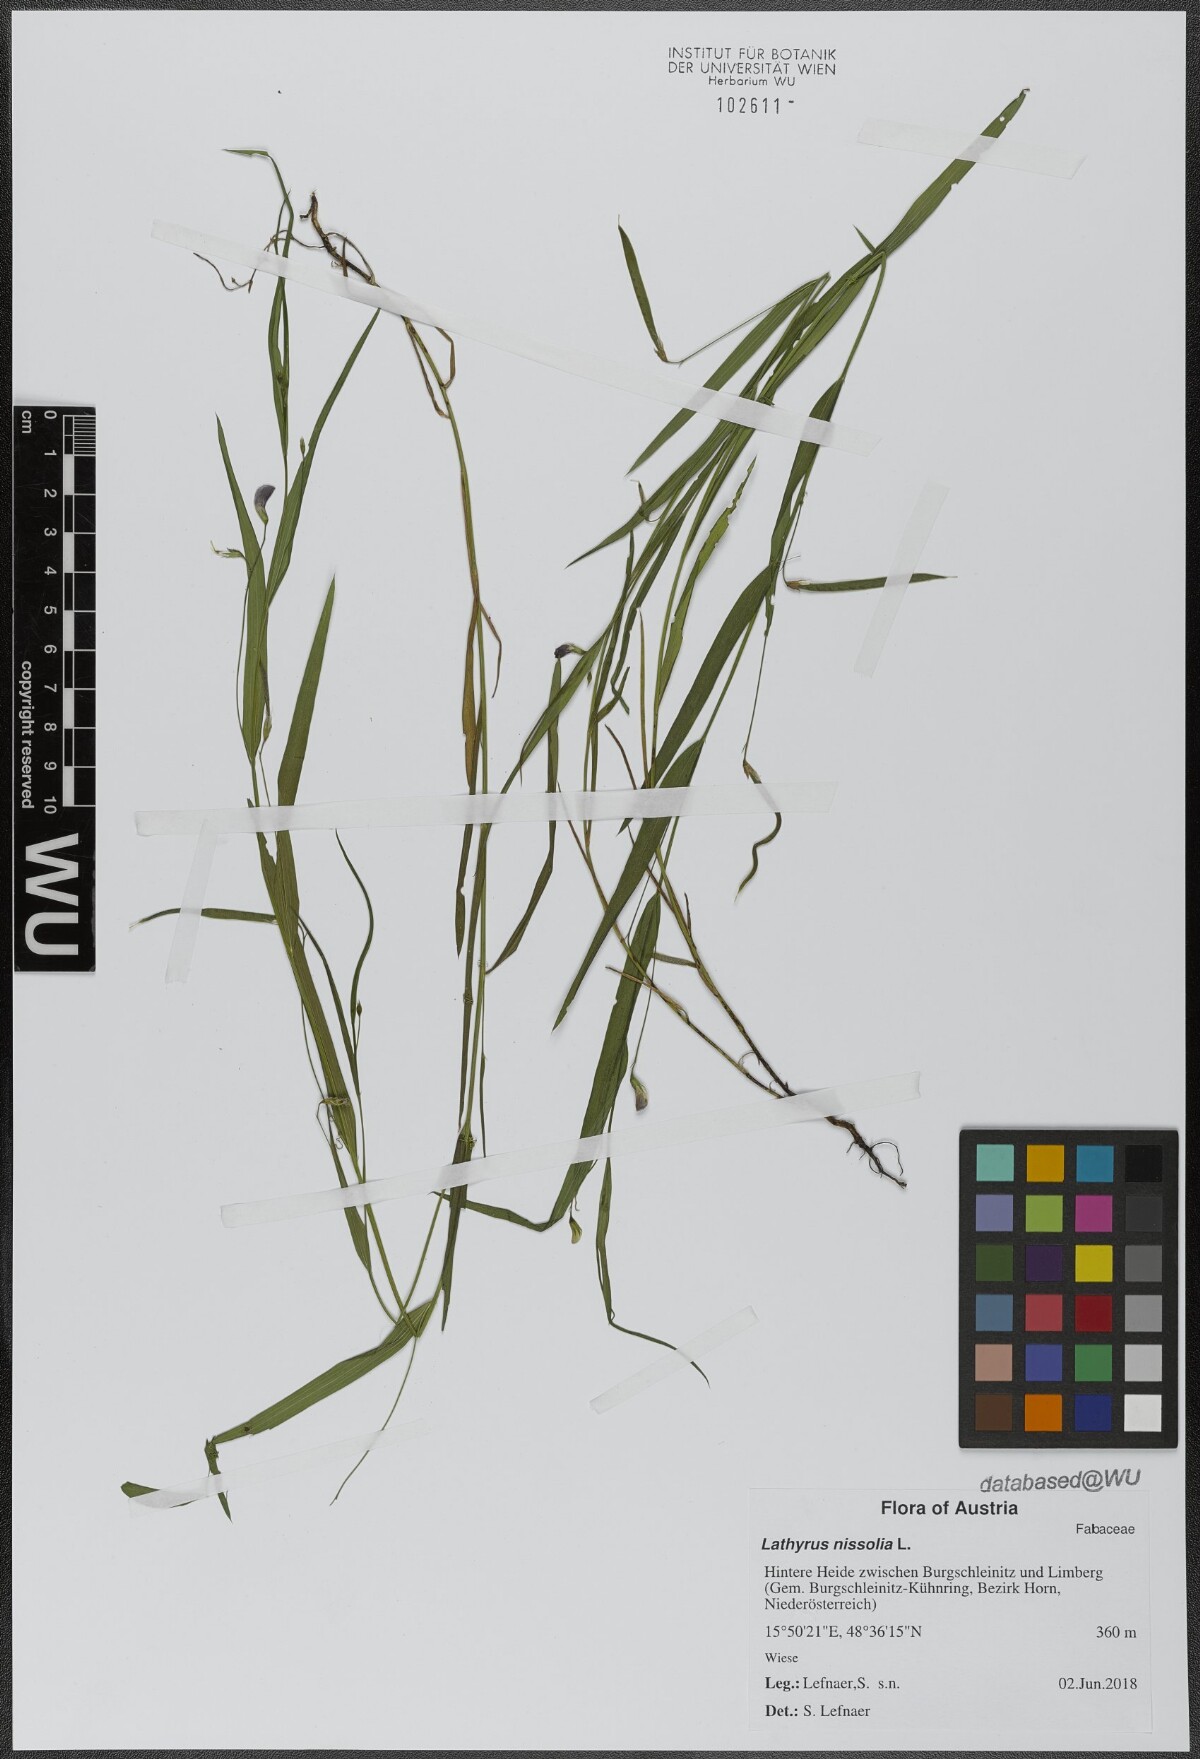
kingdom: Plantae
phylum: Tracheophyta
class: Magnoliopsida
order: Fabales
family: Fabaceae
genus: Lathyrus
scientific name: Lathyrus nissolia
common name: Grass vetchling
